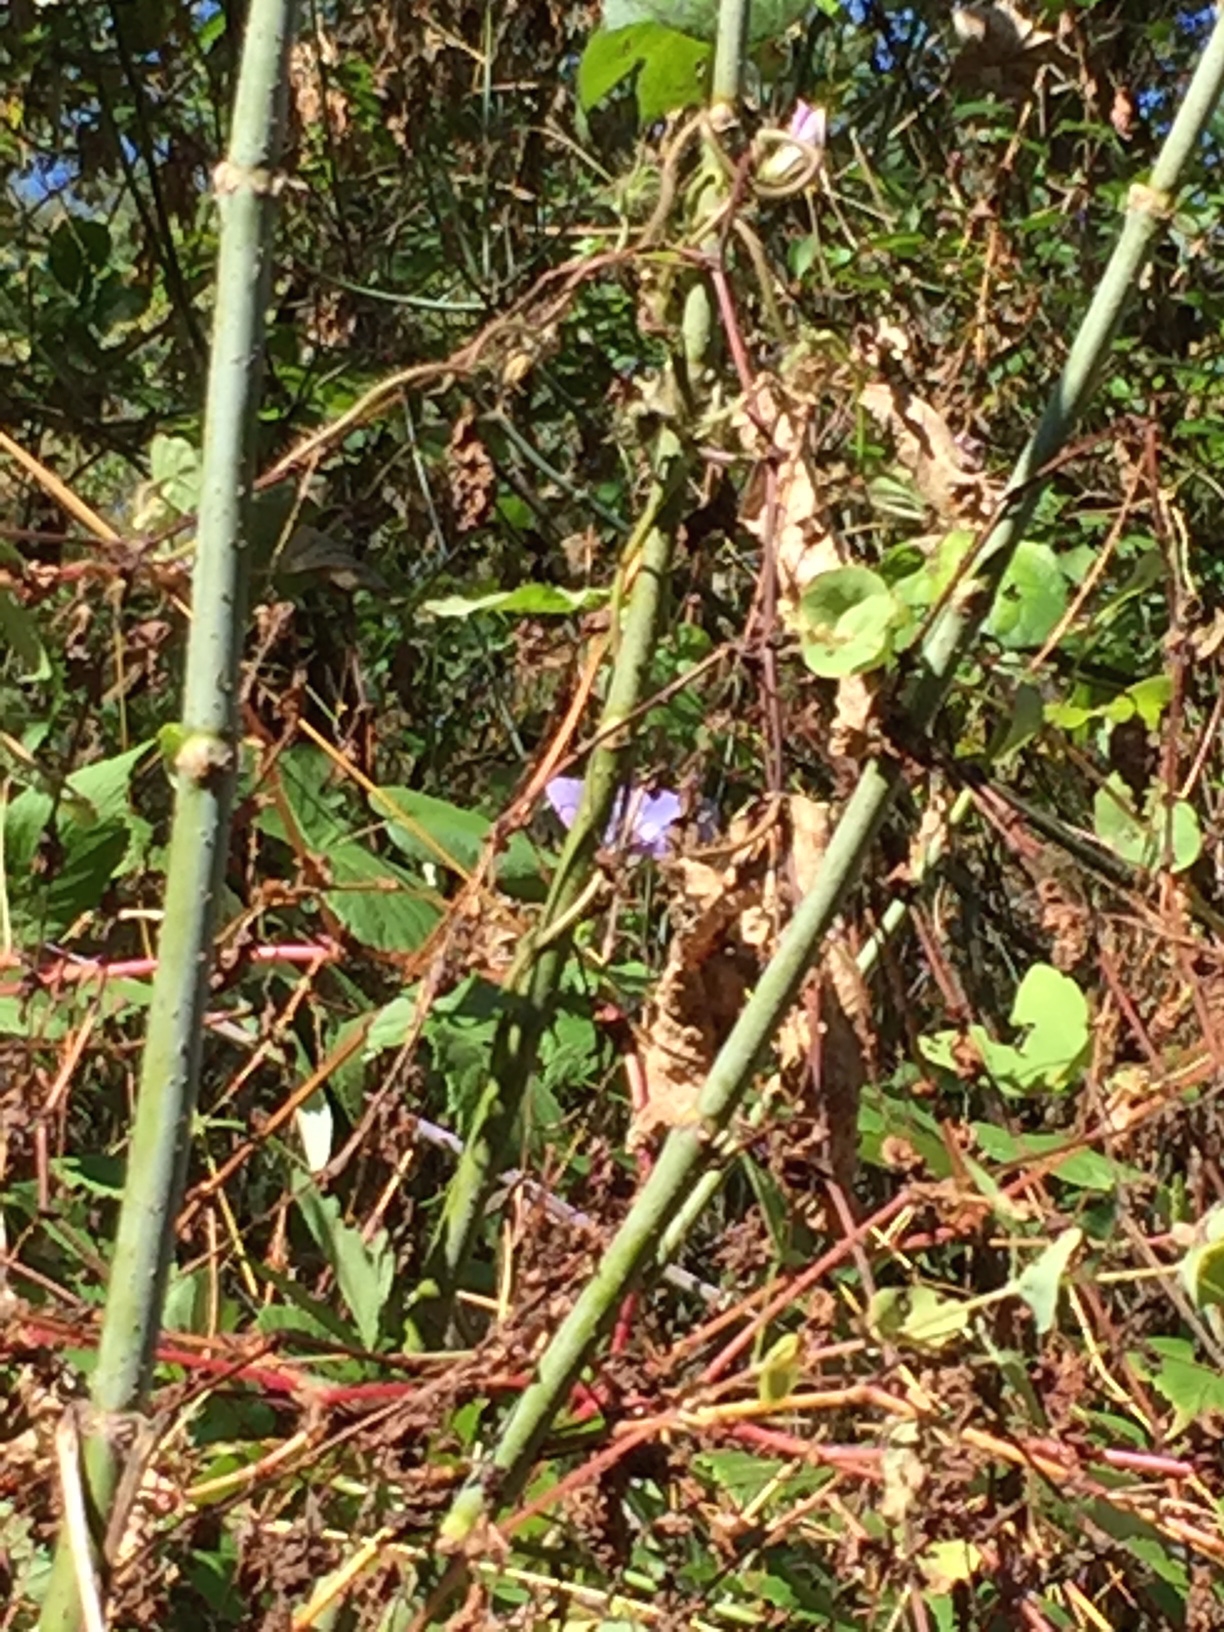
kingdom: Plantae
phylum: Tracheophyta
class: Magnoliopsida
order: Solanales
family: Convolvulaceae
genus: Ipomoea
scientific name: Ipomoea hederacea
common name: Ivy-leaved morning-glory
